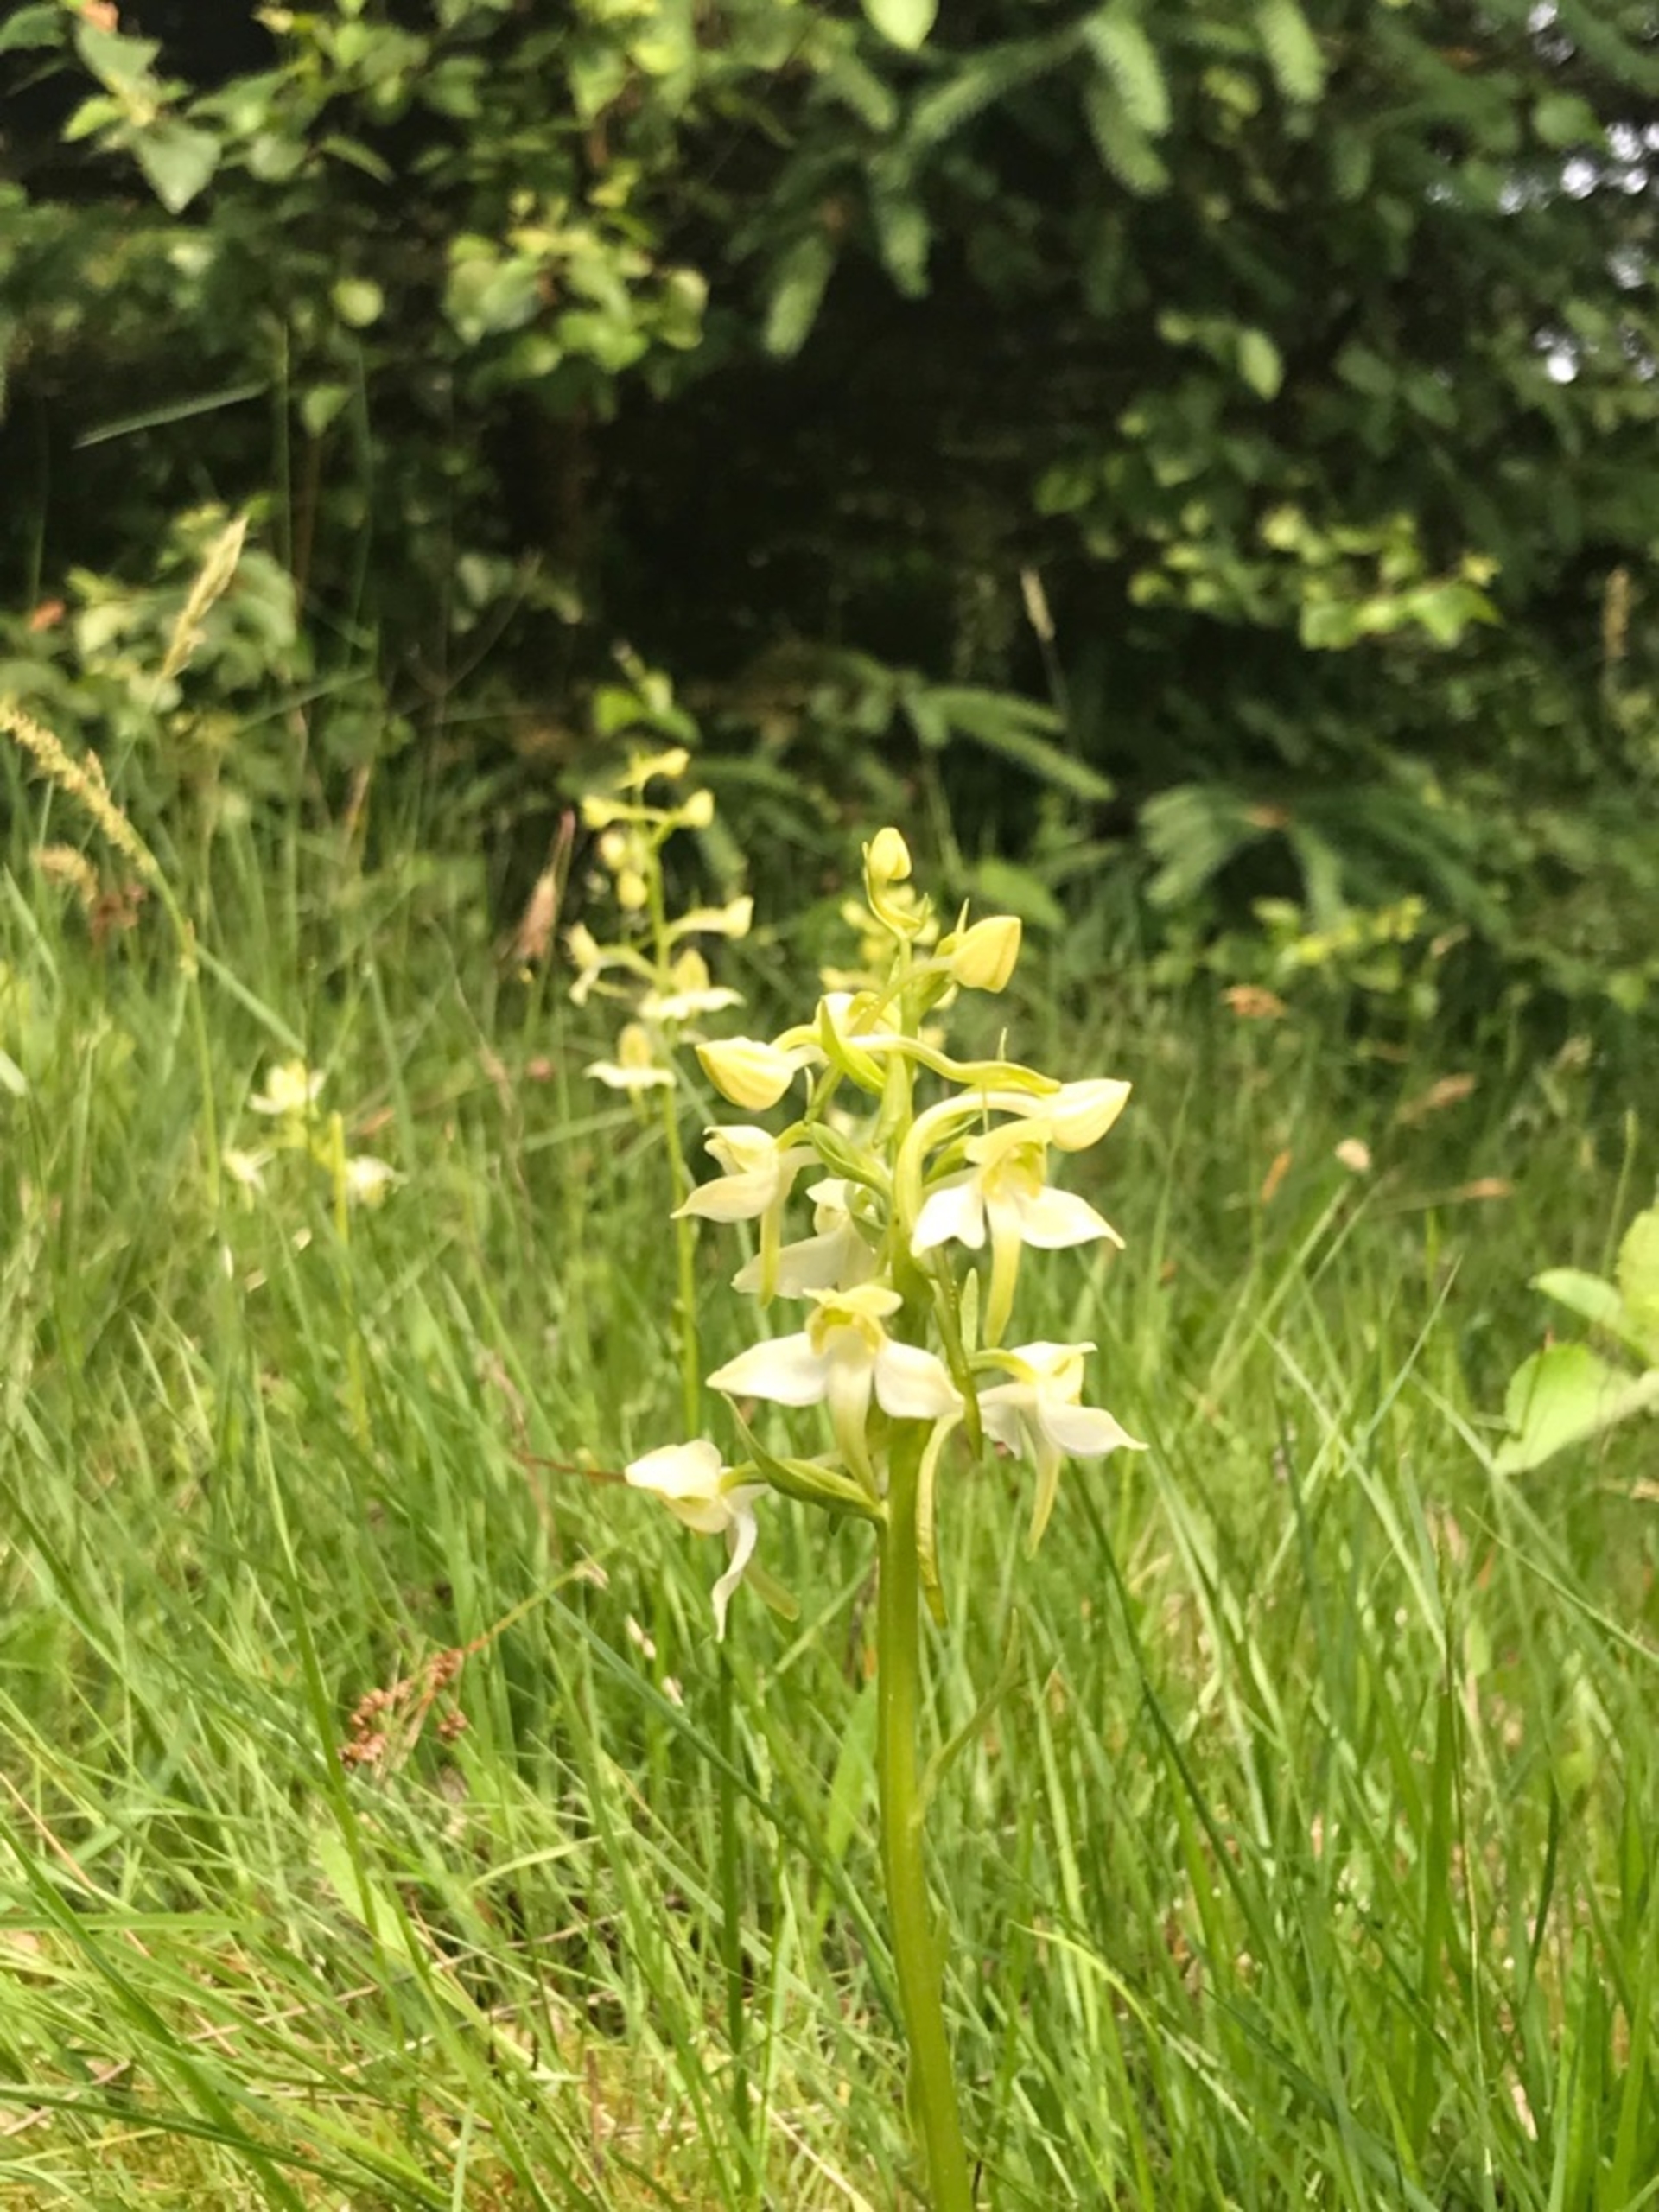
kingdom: Plantae
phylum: Tracheophyta
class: Liliopsida
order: Asparagales
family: Orchidaceae
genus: Platanthera
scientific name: Platanthera chlorantha
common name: Skov-gøgelilje
